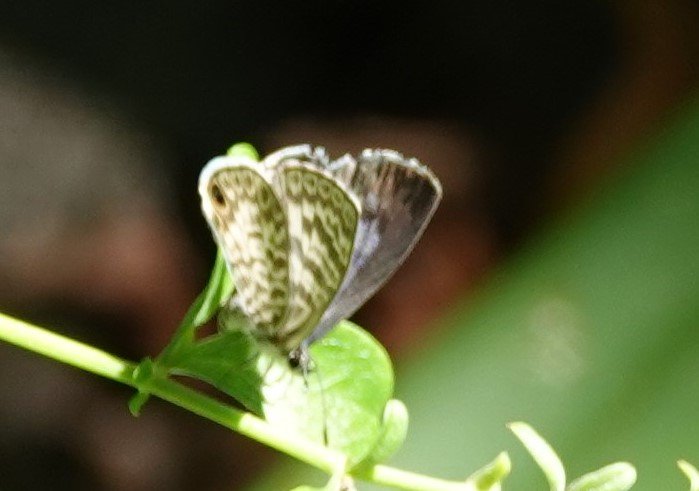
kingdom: Animalia
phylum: Arthropoda
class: Insecta
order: Lepidoptera
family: Lycaenidae
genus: Leptotes
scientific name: Leptotes cassius
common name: Cassius Blue
